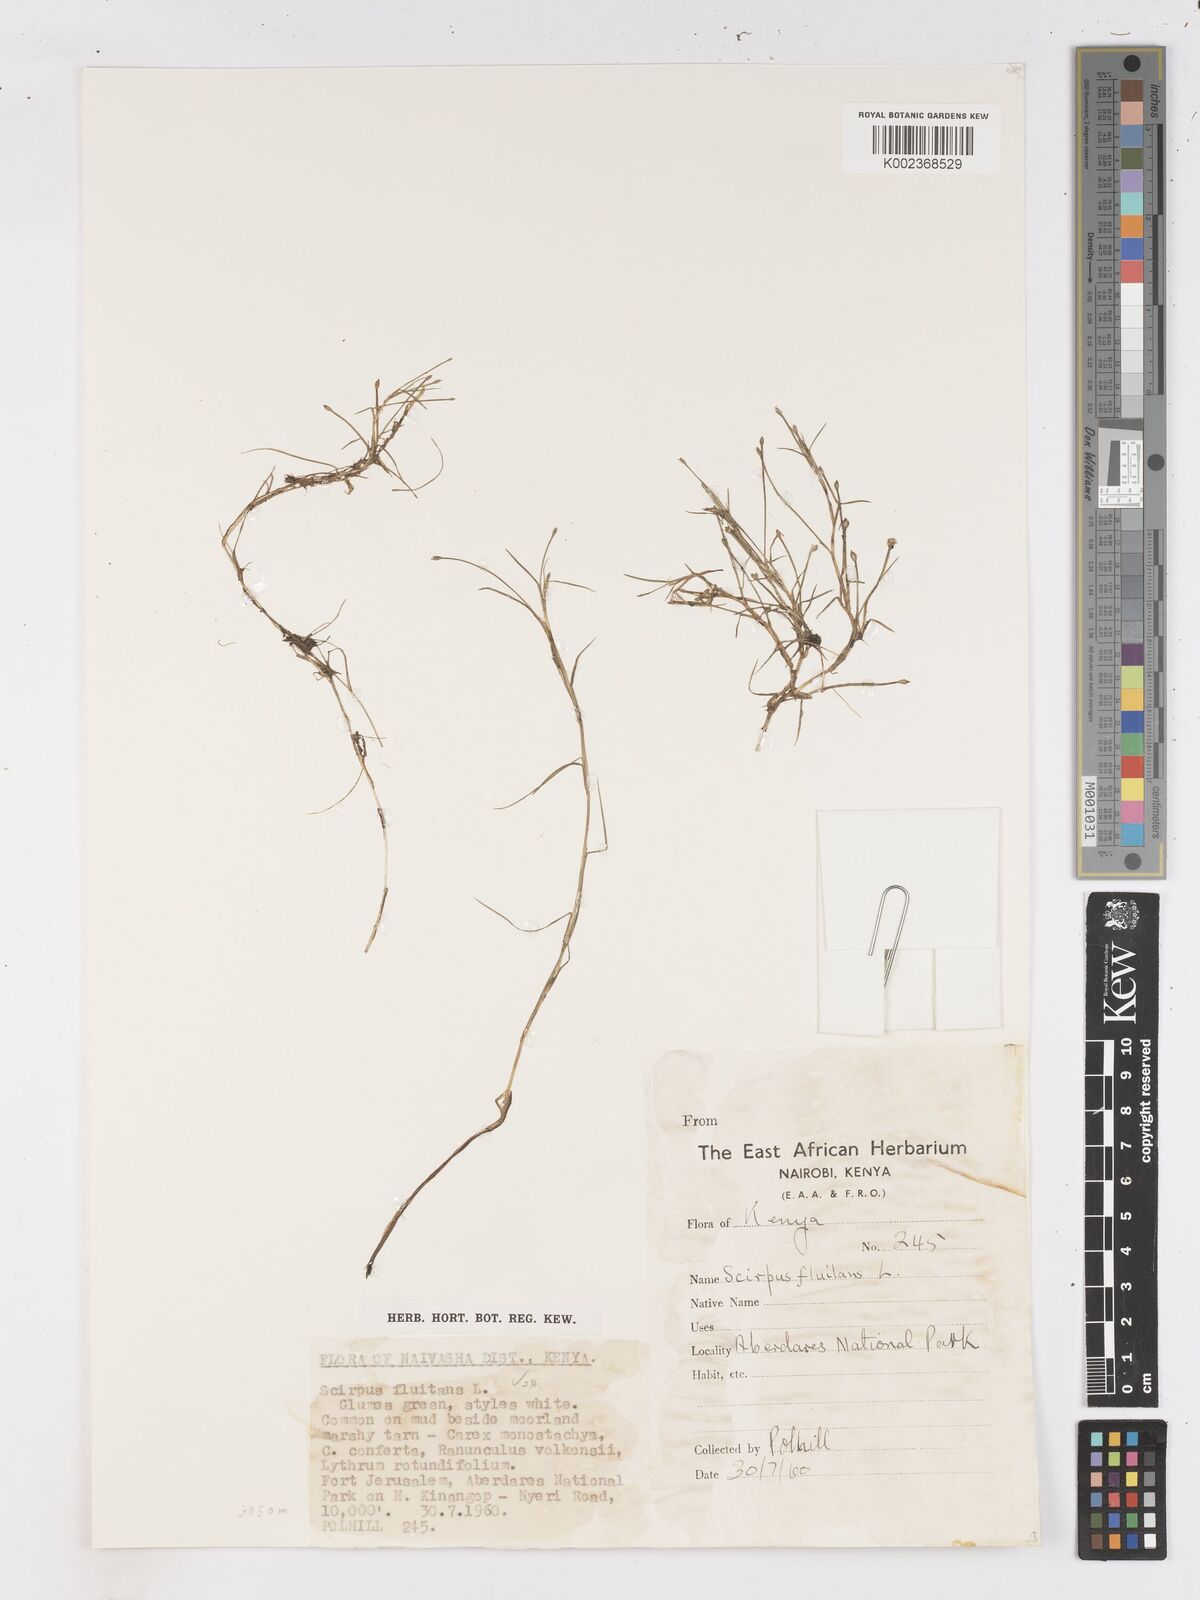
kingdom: Plantae
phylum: Tracheophyta
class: Liliopsida
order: Poales
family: Cyperaceae
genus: Isolepis
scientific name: Isolepis fluitans
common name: Floating club-rush
